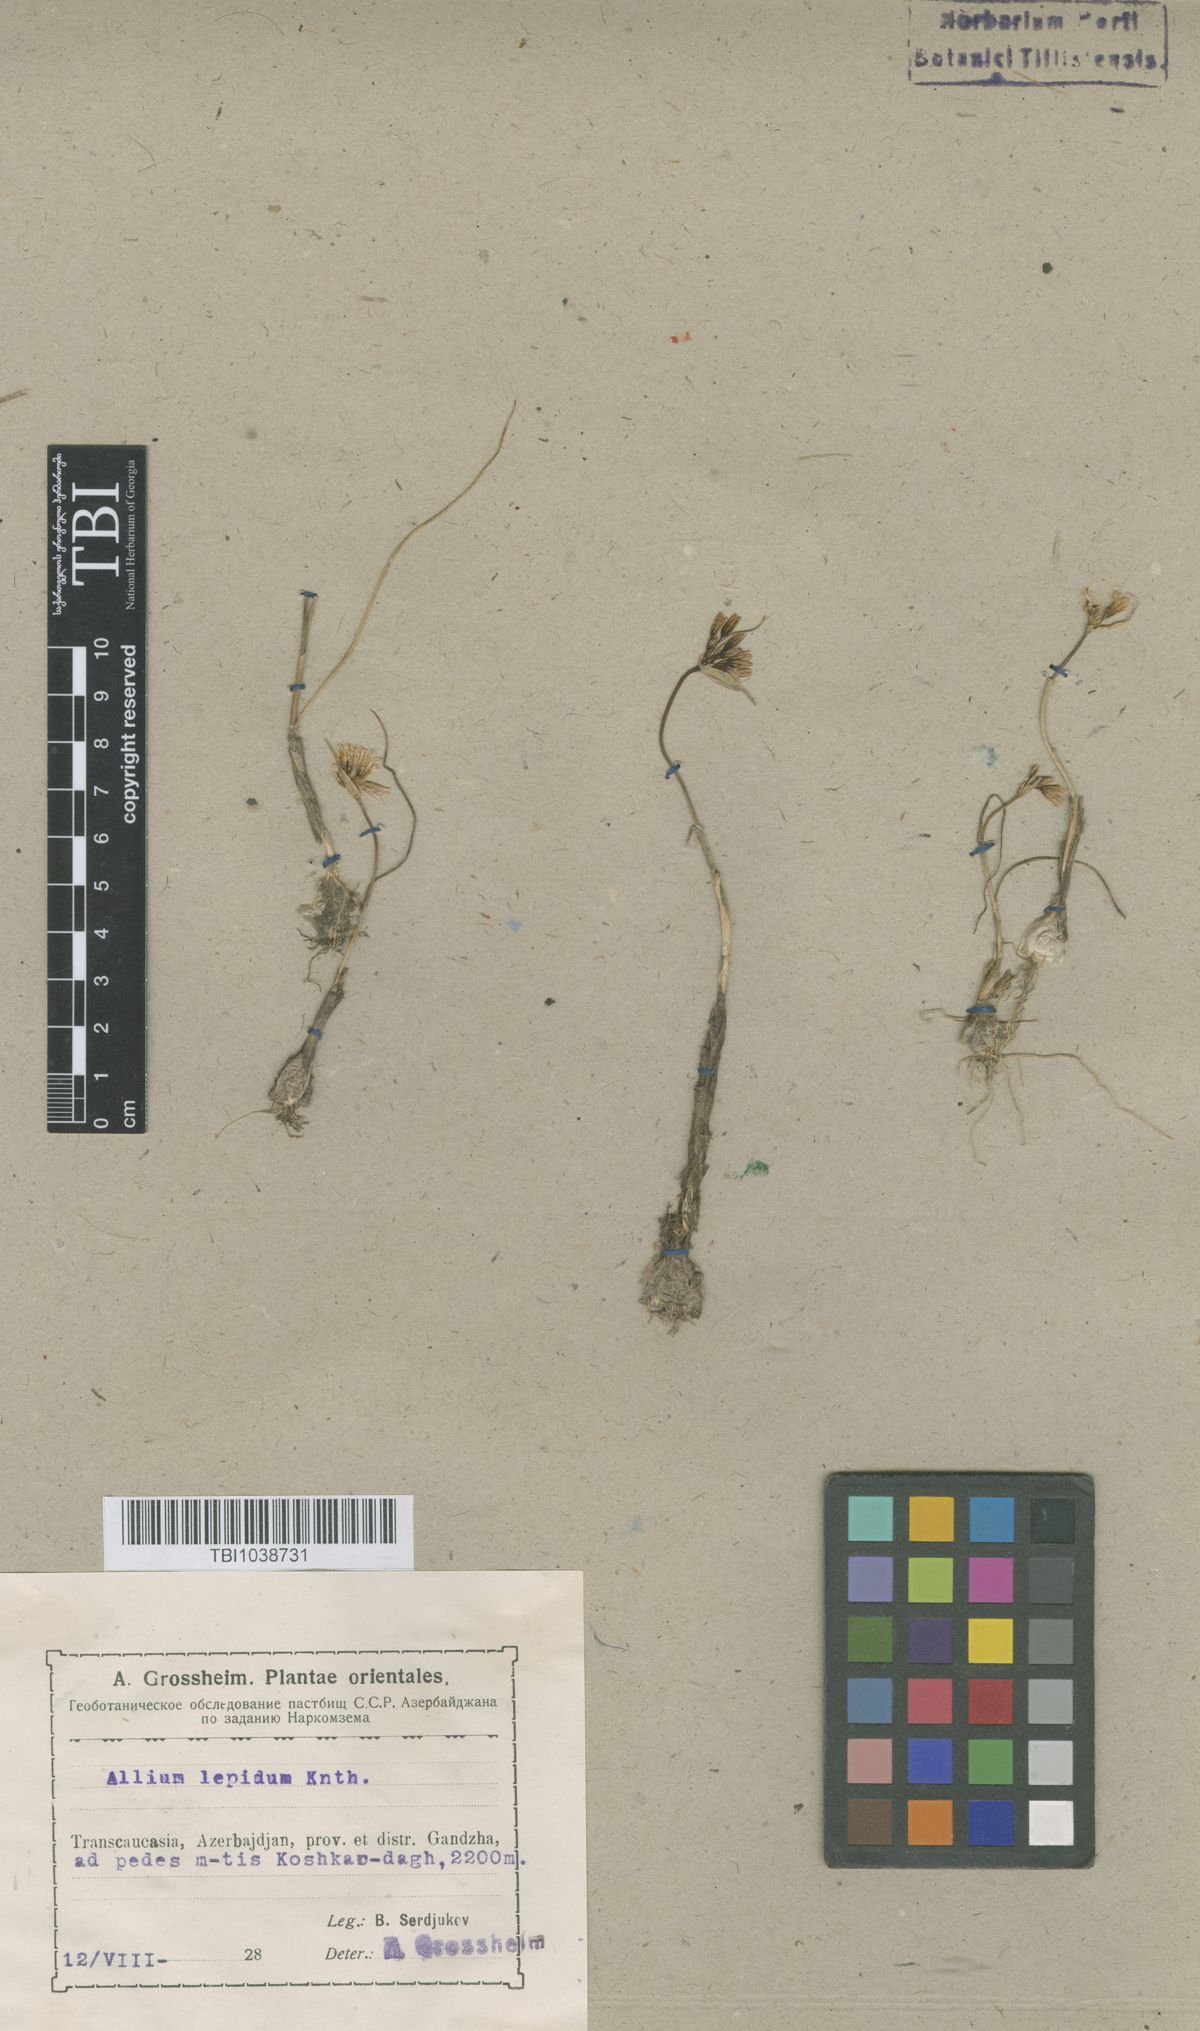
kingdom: Plantae
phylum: Tracheophyta
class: Liliopsida
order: Asparagales
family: Amaryllidaceae
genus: Allium
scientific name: Allium kunthianum
